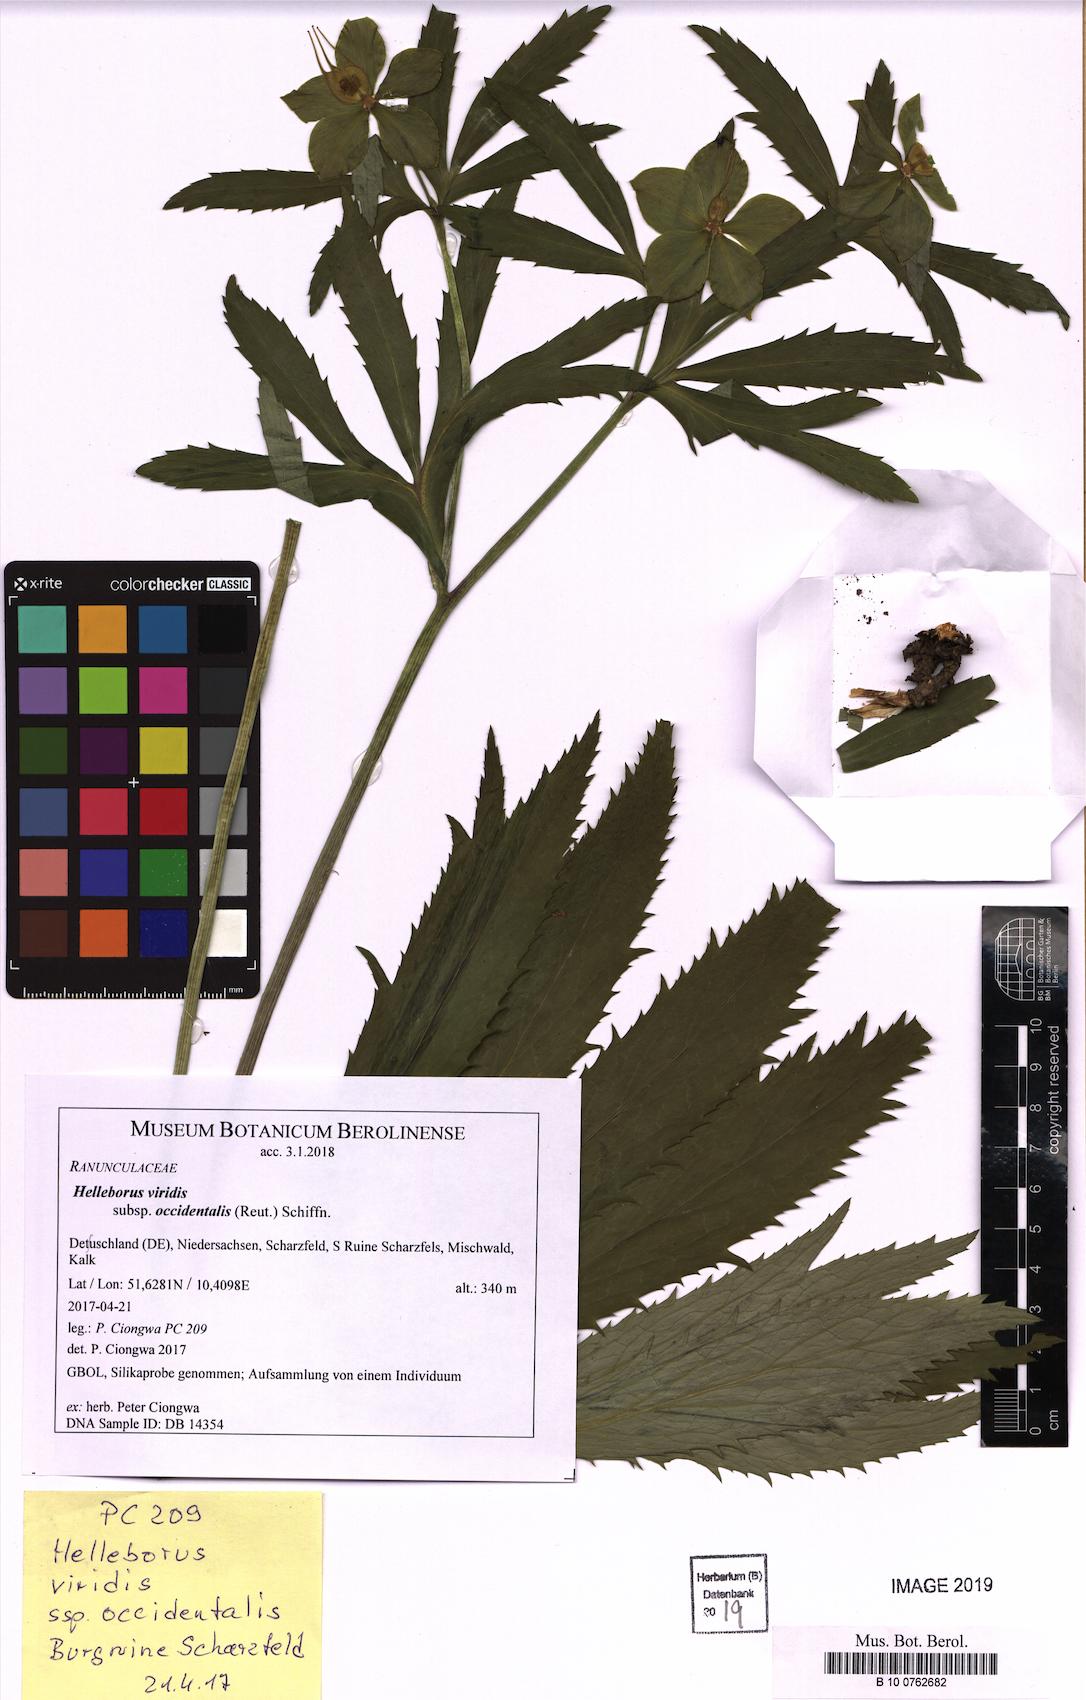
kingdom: Plantae
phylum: Tracheophyta
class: Magnoliopsida
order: Ranunculales
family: Ranunculaceae
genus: Helleborus
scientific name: Helleborus viridis
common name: Green hellebore
